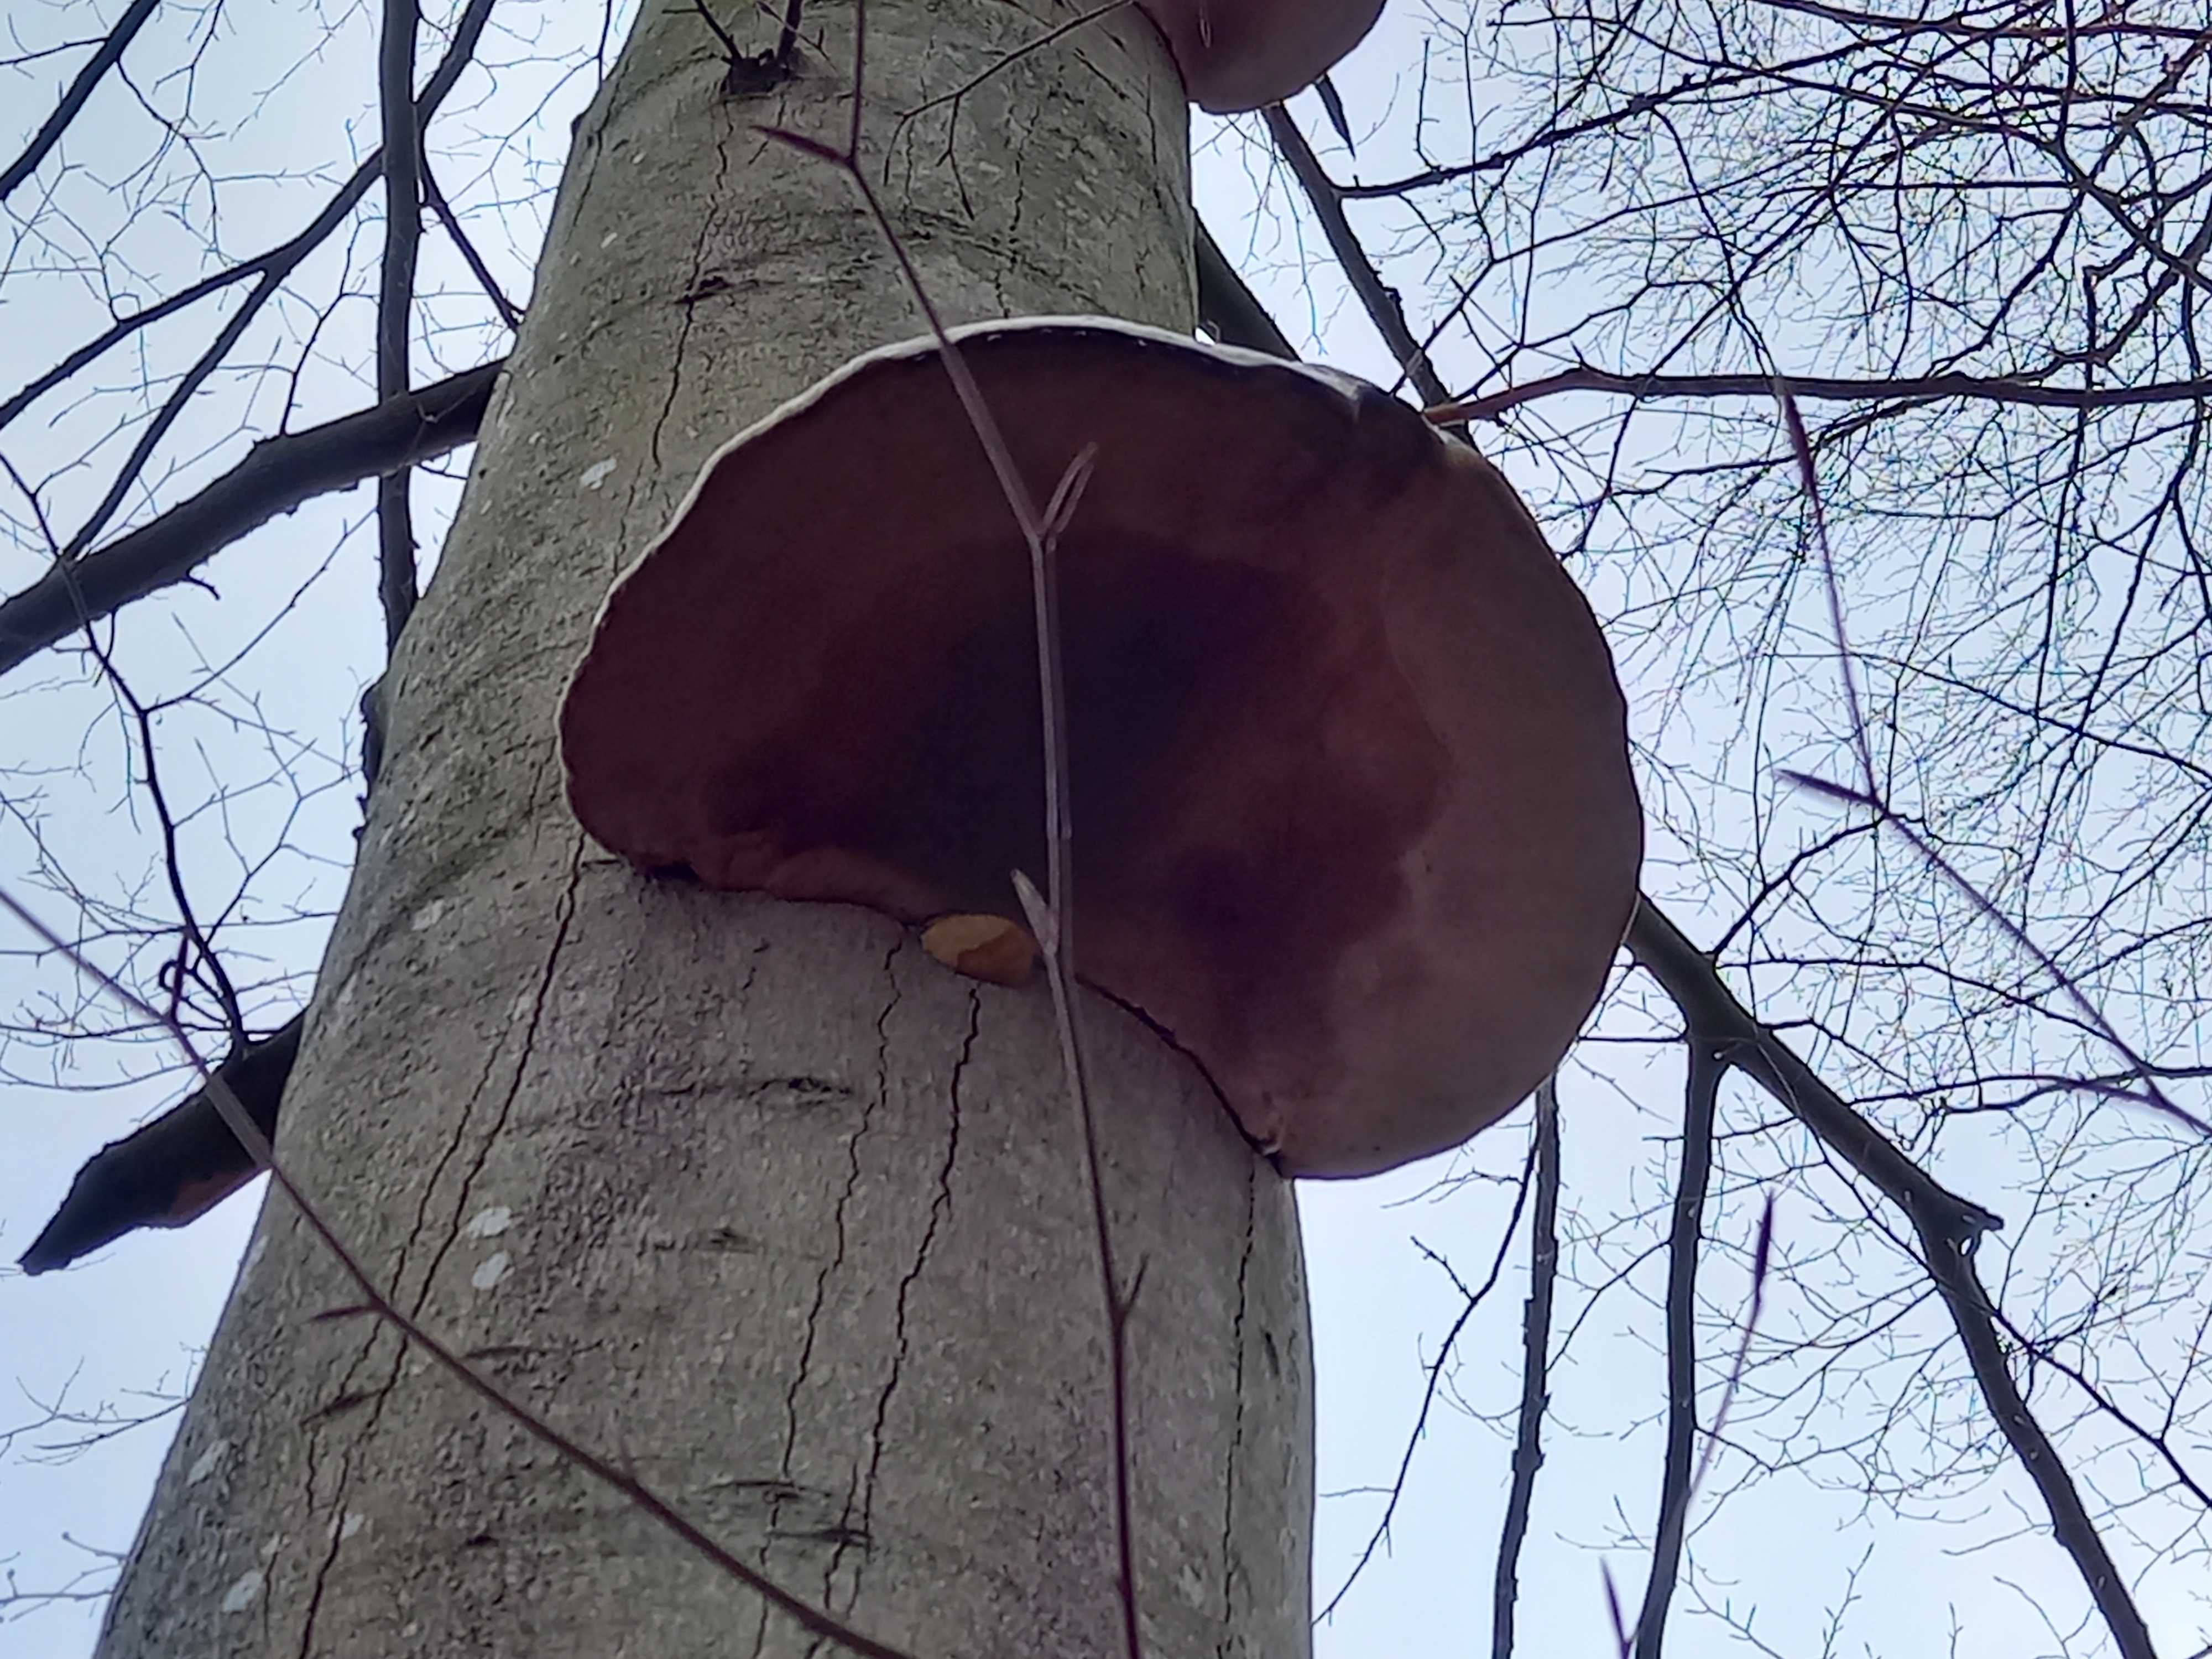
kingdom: Fungi
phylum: Basidiomycota
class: Agaricomycetes
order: Polyporales
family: Polyporaceae
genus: Fomes
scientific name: Fomes fomentarius
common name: tøndersvamp
